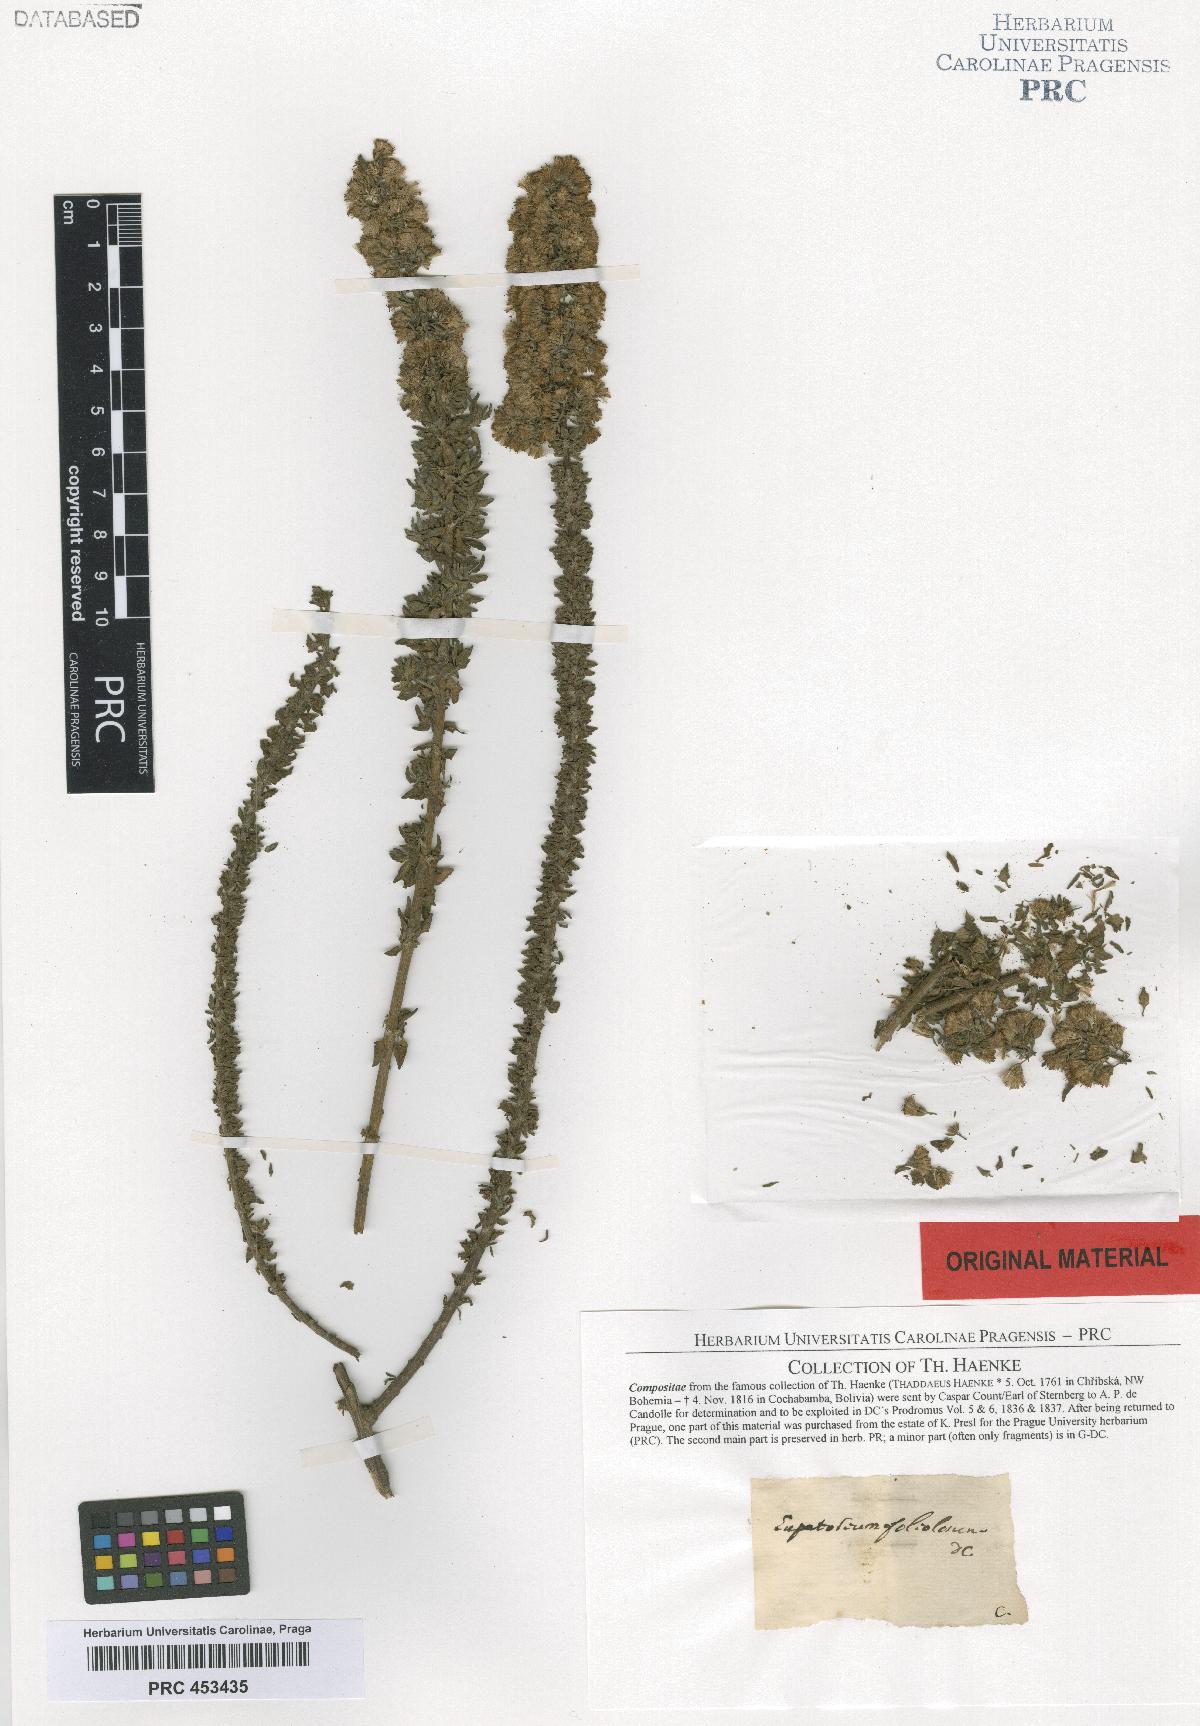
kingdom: Plantae
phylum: Tracheophyta
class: Magnoliopsida
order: Asterales
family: Asteraceae
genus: Ophryosporus
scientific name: Ophryosporus triangularis
